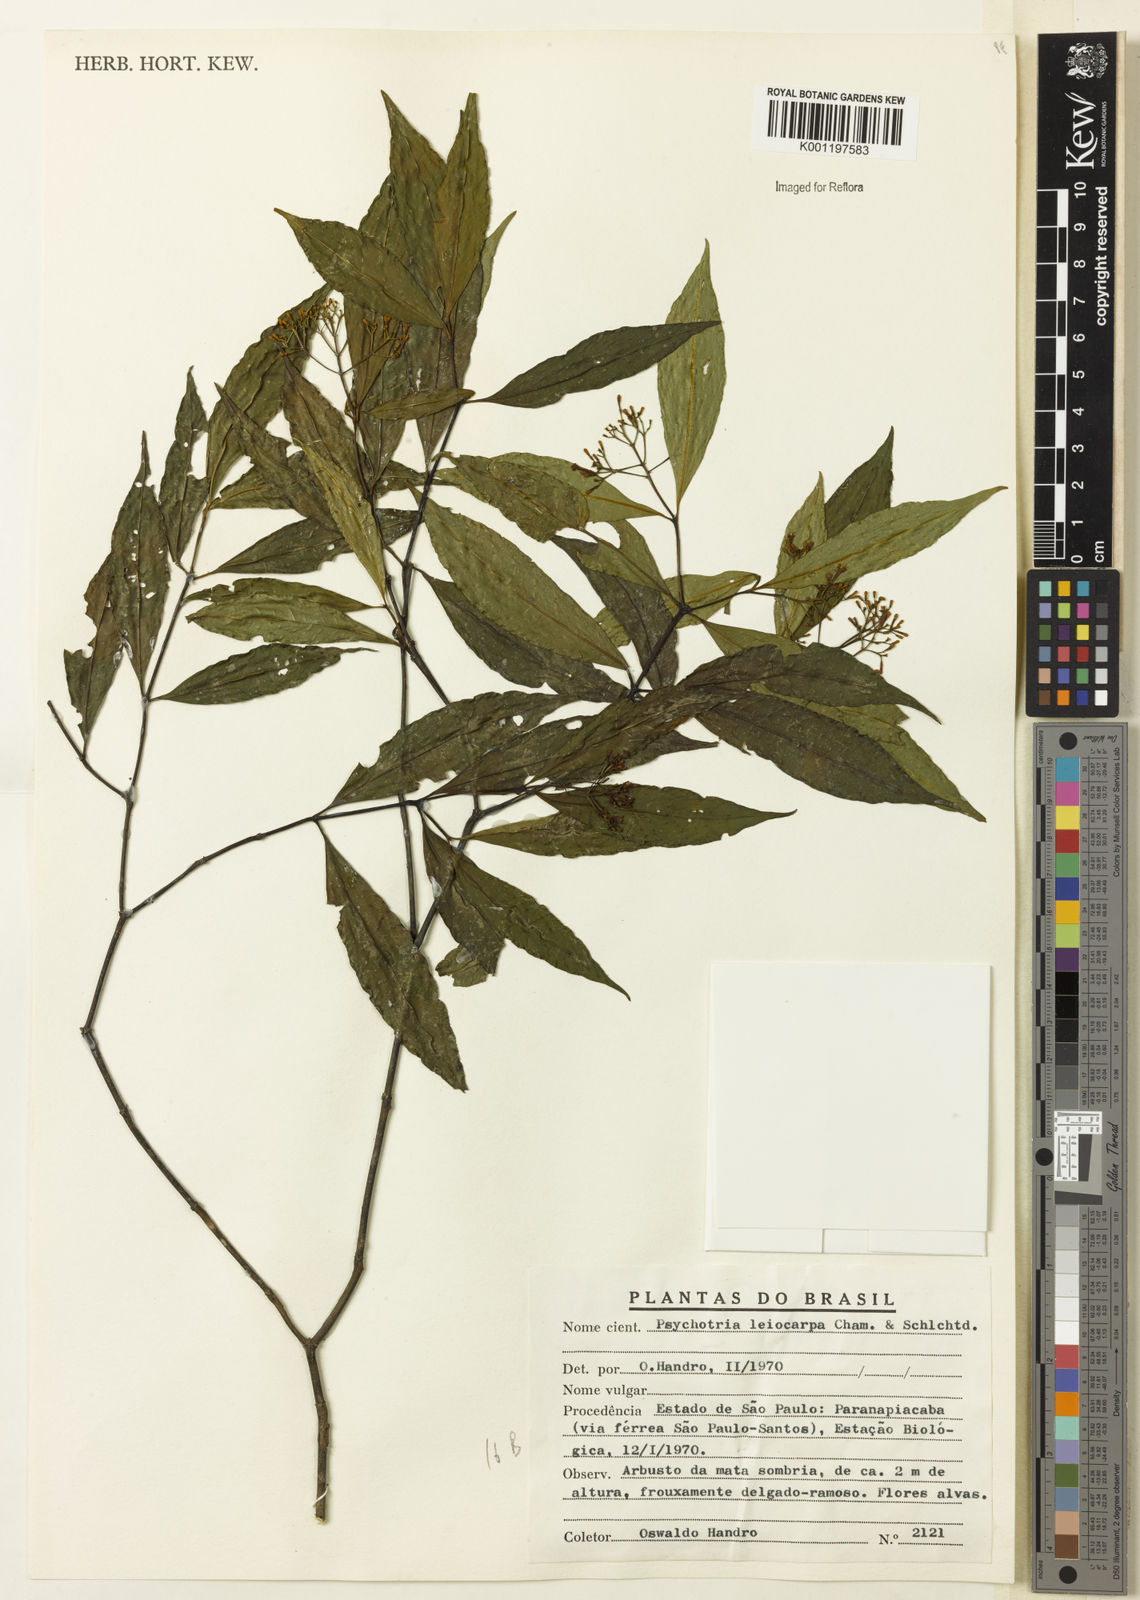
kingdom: Plantae
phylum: Tracheophyta
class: Magnoliopsida
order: Gentianales
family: Rubiaceae
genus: Psychotria
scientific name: Psychotria leiocarpa
